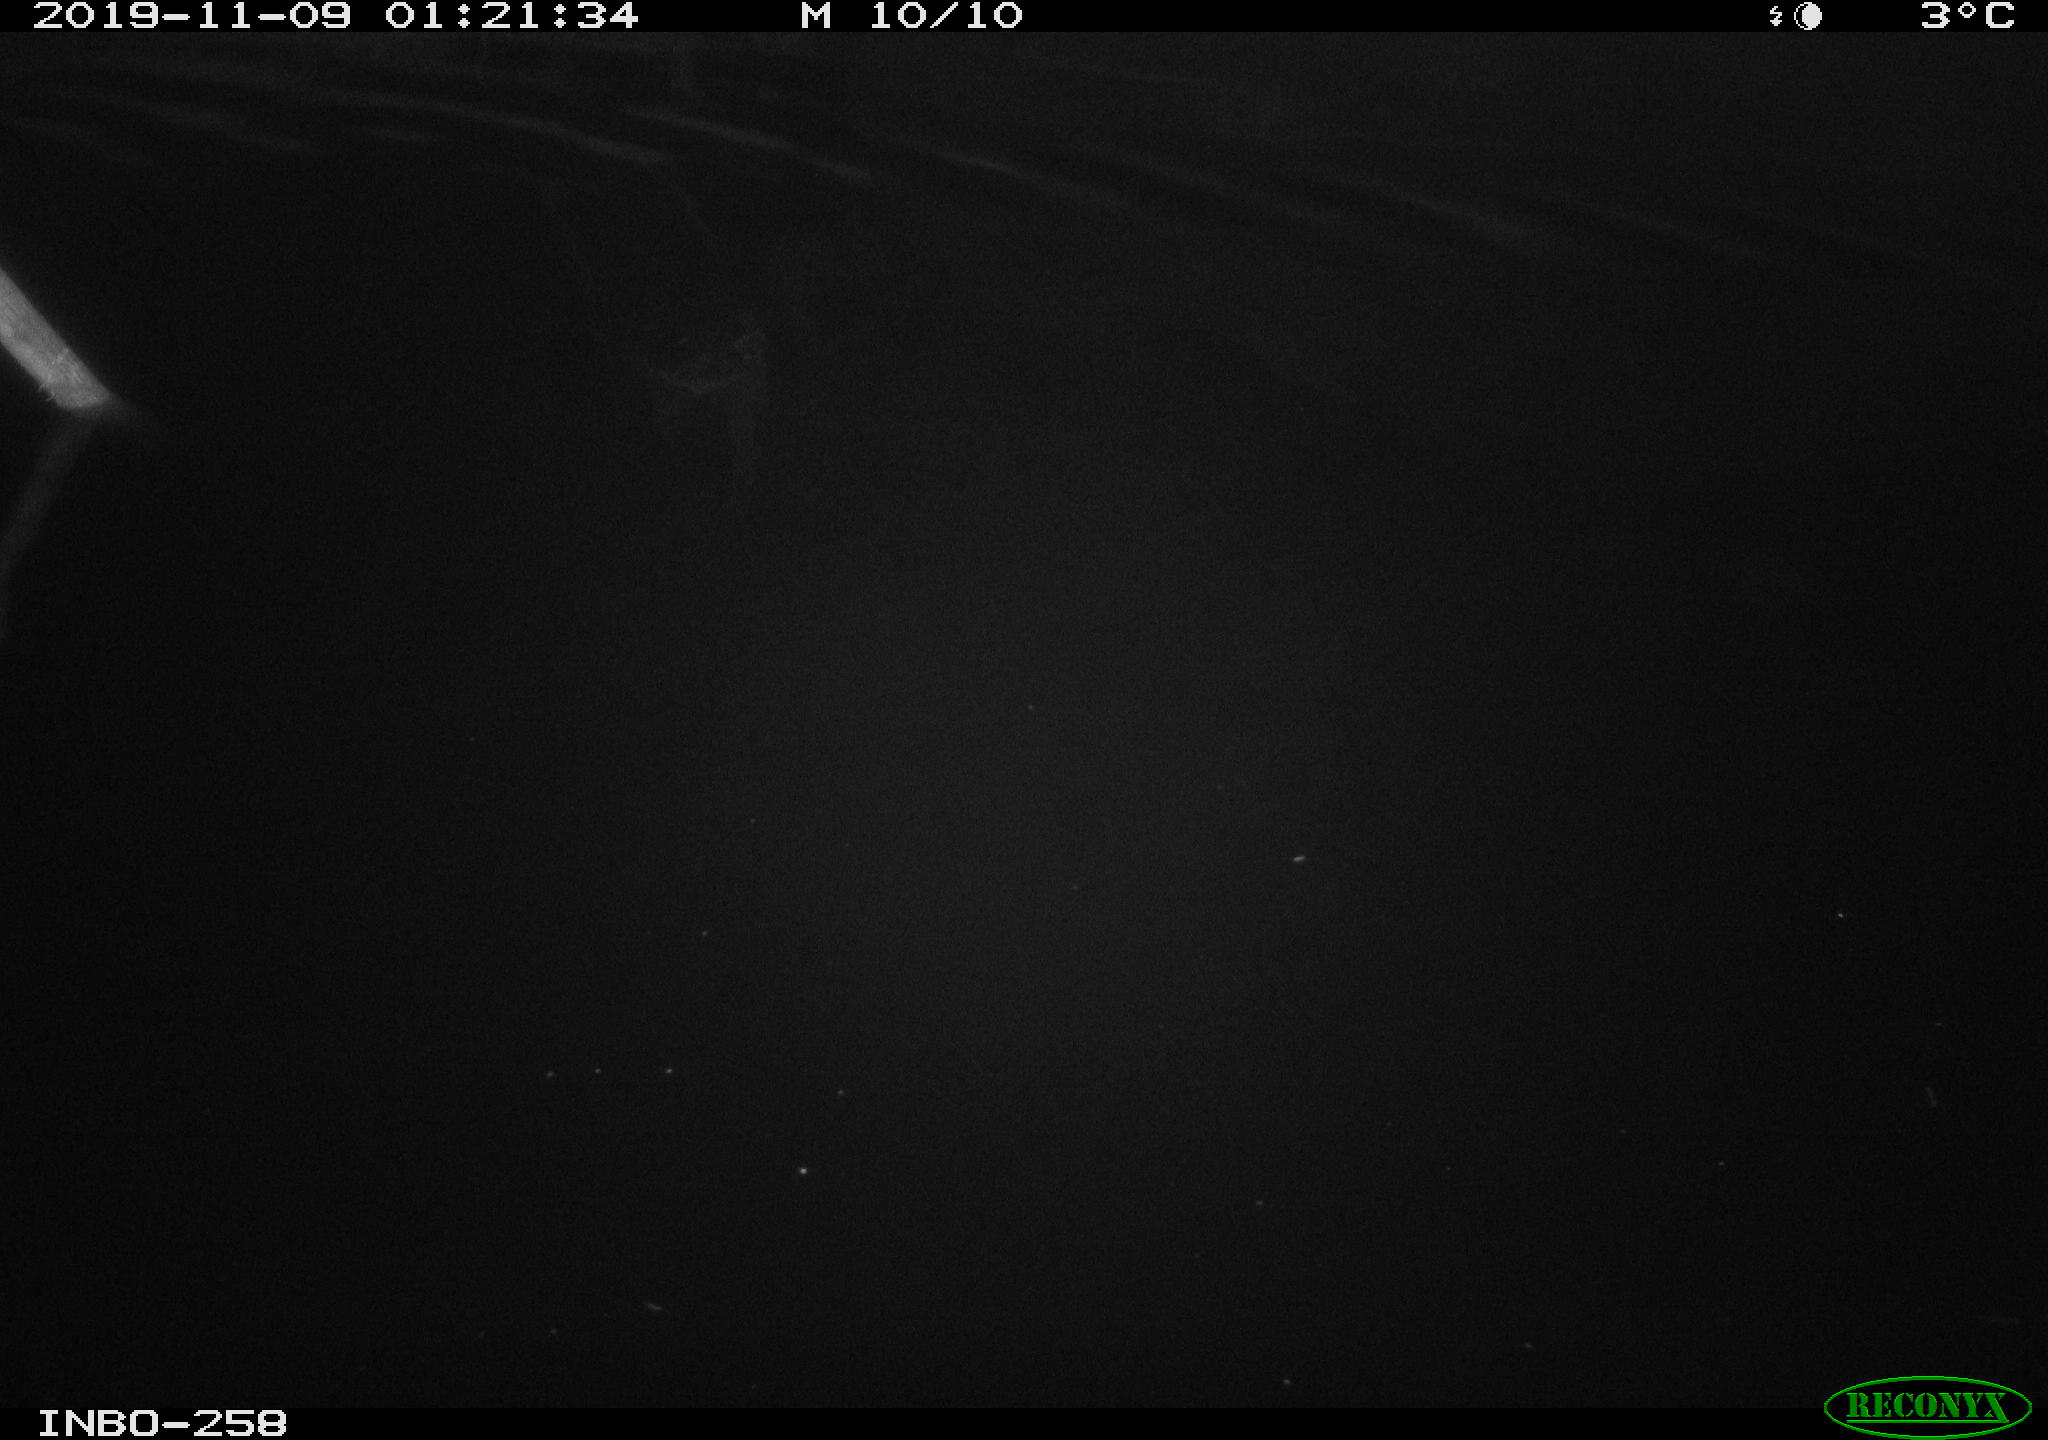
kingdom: Animalia
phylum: Chordata
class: Aves
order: Anseriformes
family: Anatidae
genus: Anas
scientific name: Anas platyrhynchos
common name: Mallard
